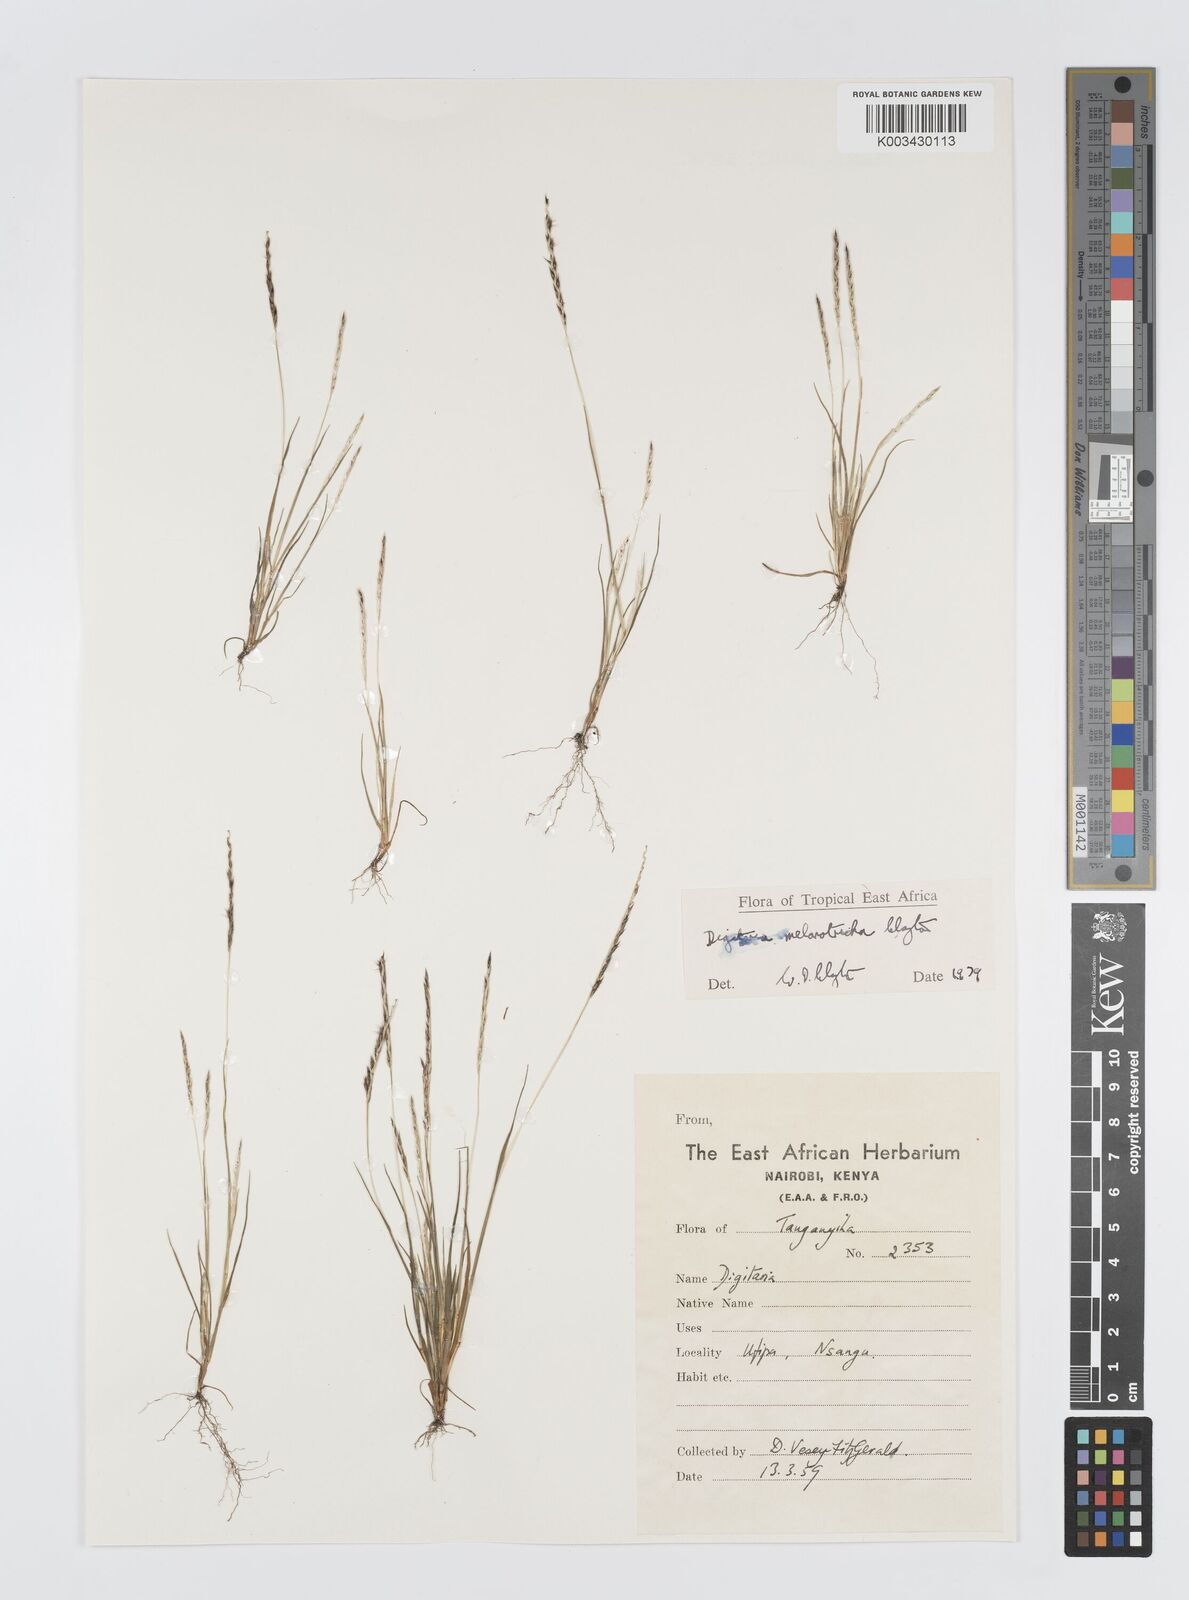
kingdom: Plantae
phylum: Tracheophyta
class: Liliopsida
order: Poales
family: Poaceae
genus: Digitaria
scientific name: Digitaria melanotricha
